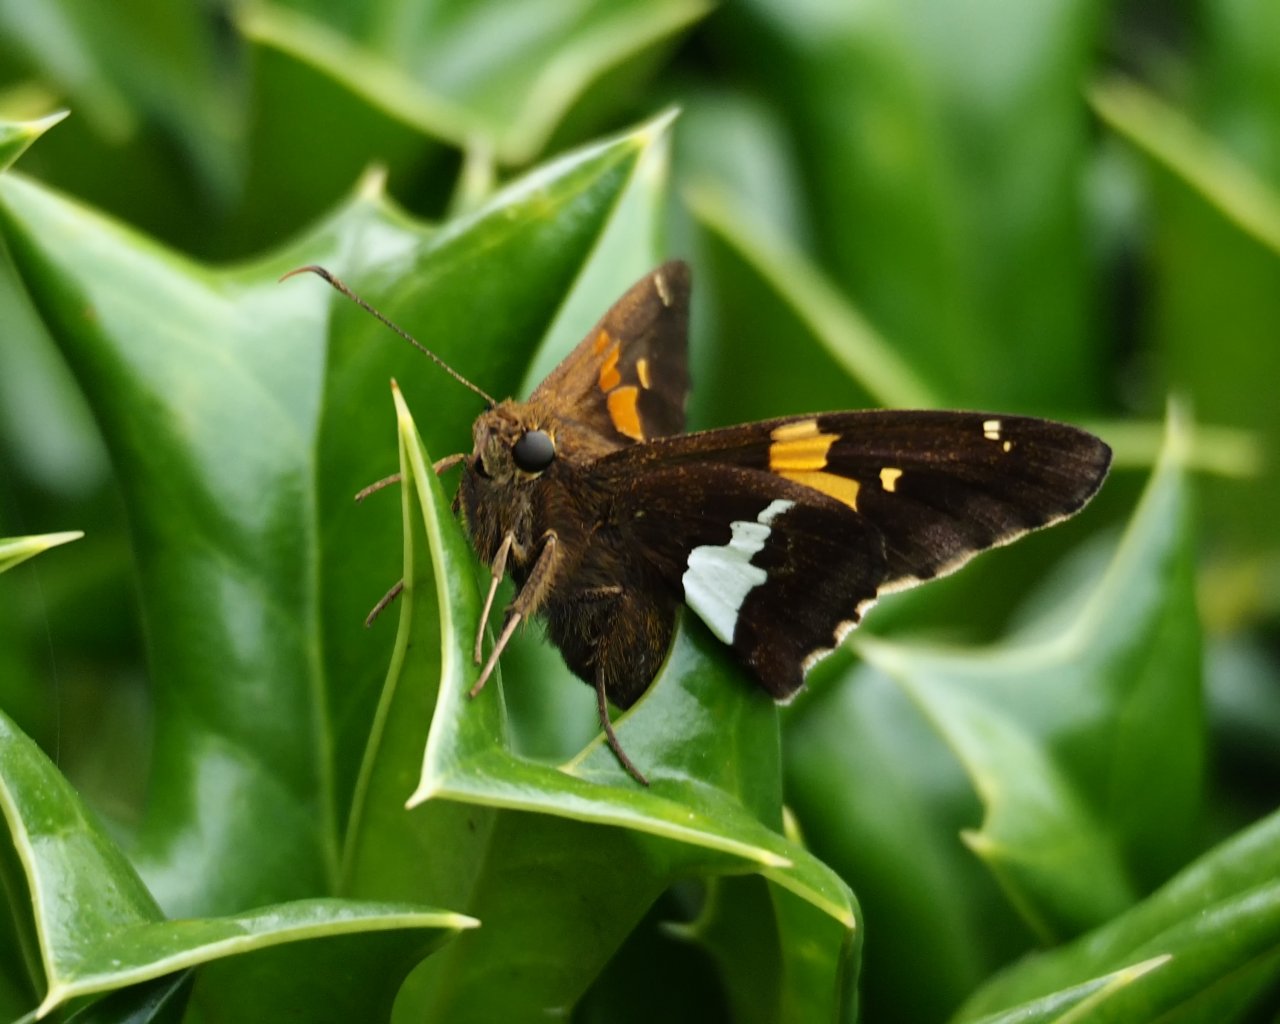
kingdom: Animalia
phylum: Arthropoda
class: Insecta
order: Lepidoptera
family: Hesperiidae
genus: Epargyreus
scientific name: Epargyreus clarus
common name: Silver-spotted Skipper
